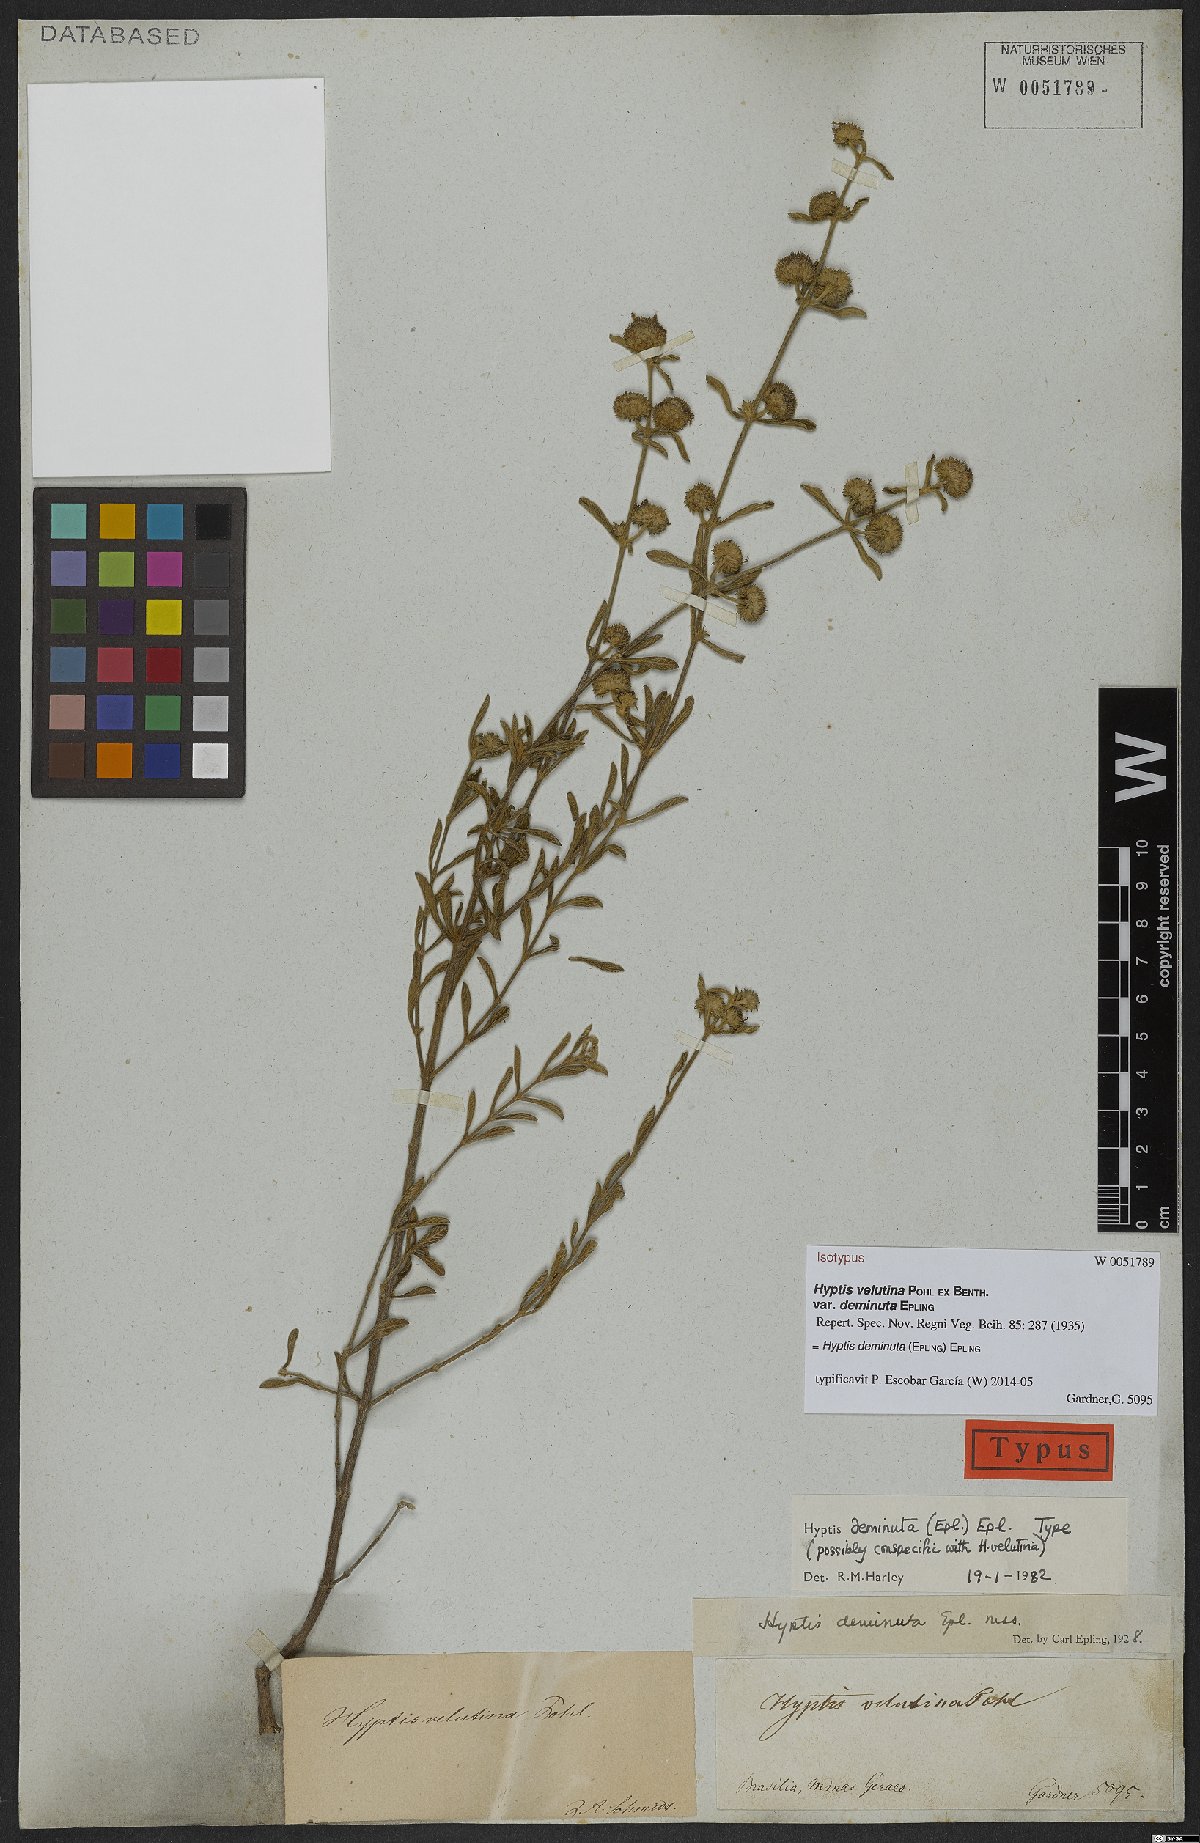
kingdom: Plantae
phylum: Tracheophyta
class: Magnoliopsida
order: Lamiales
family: Lamiaceae
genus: Hyptis
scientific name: Hyptis deminuta
